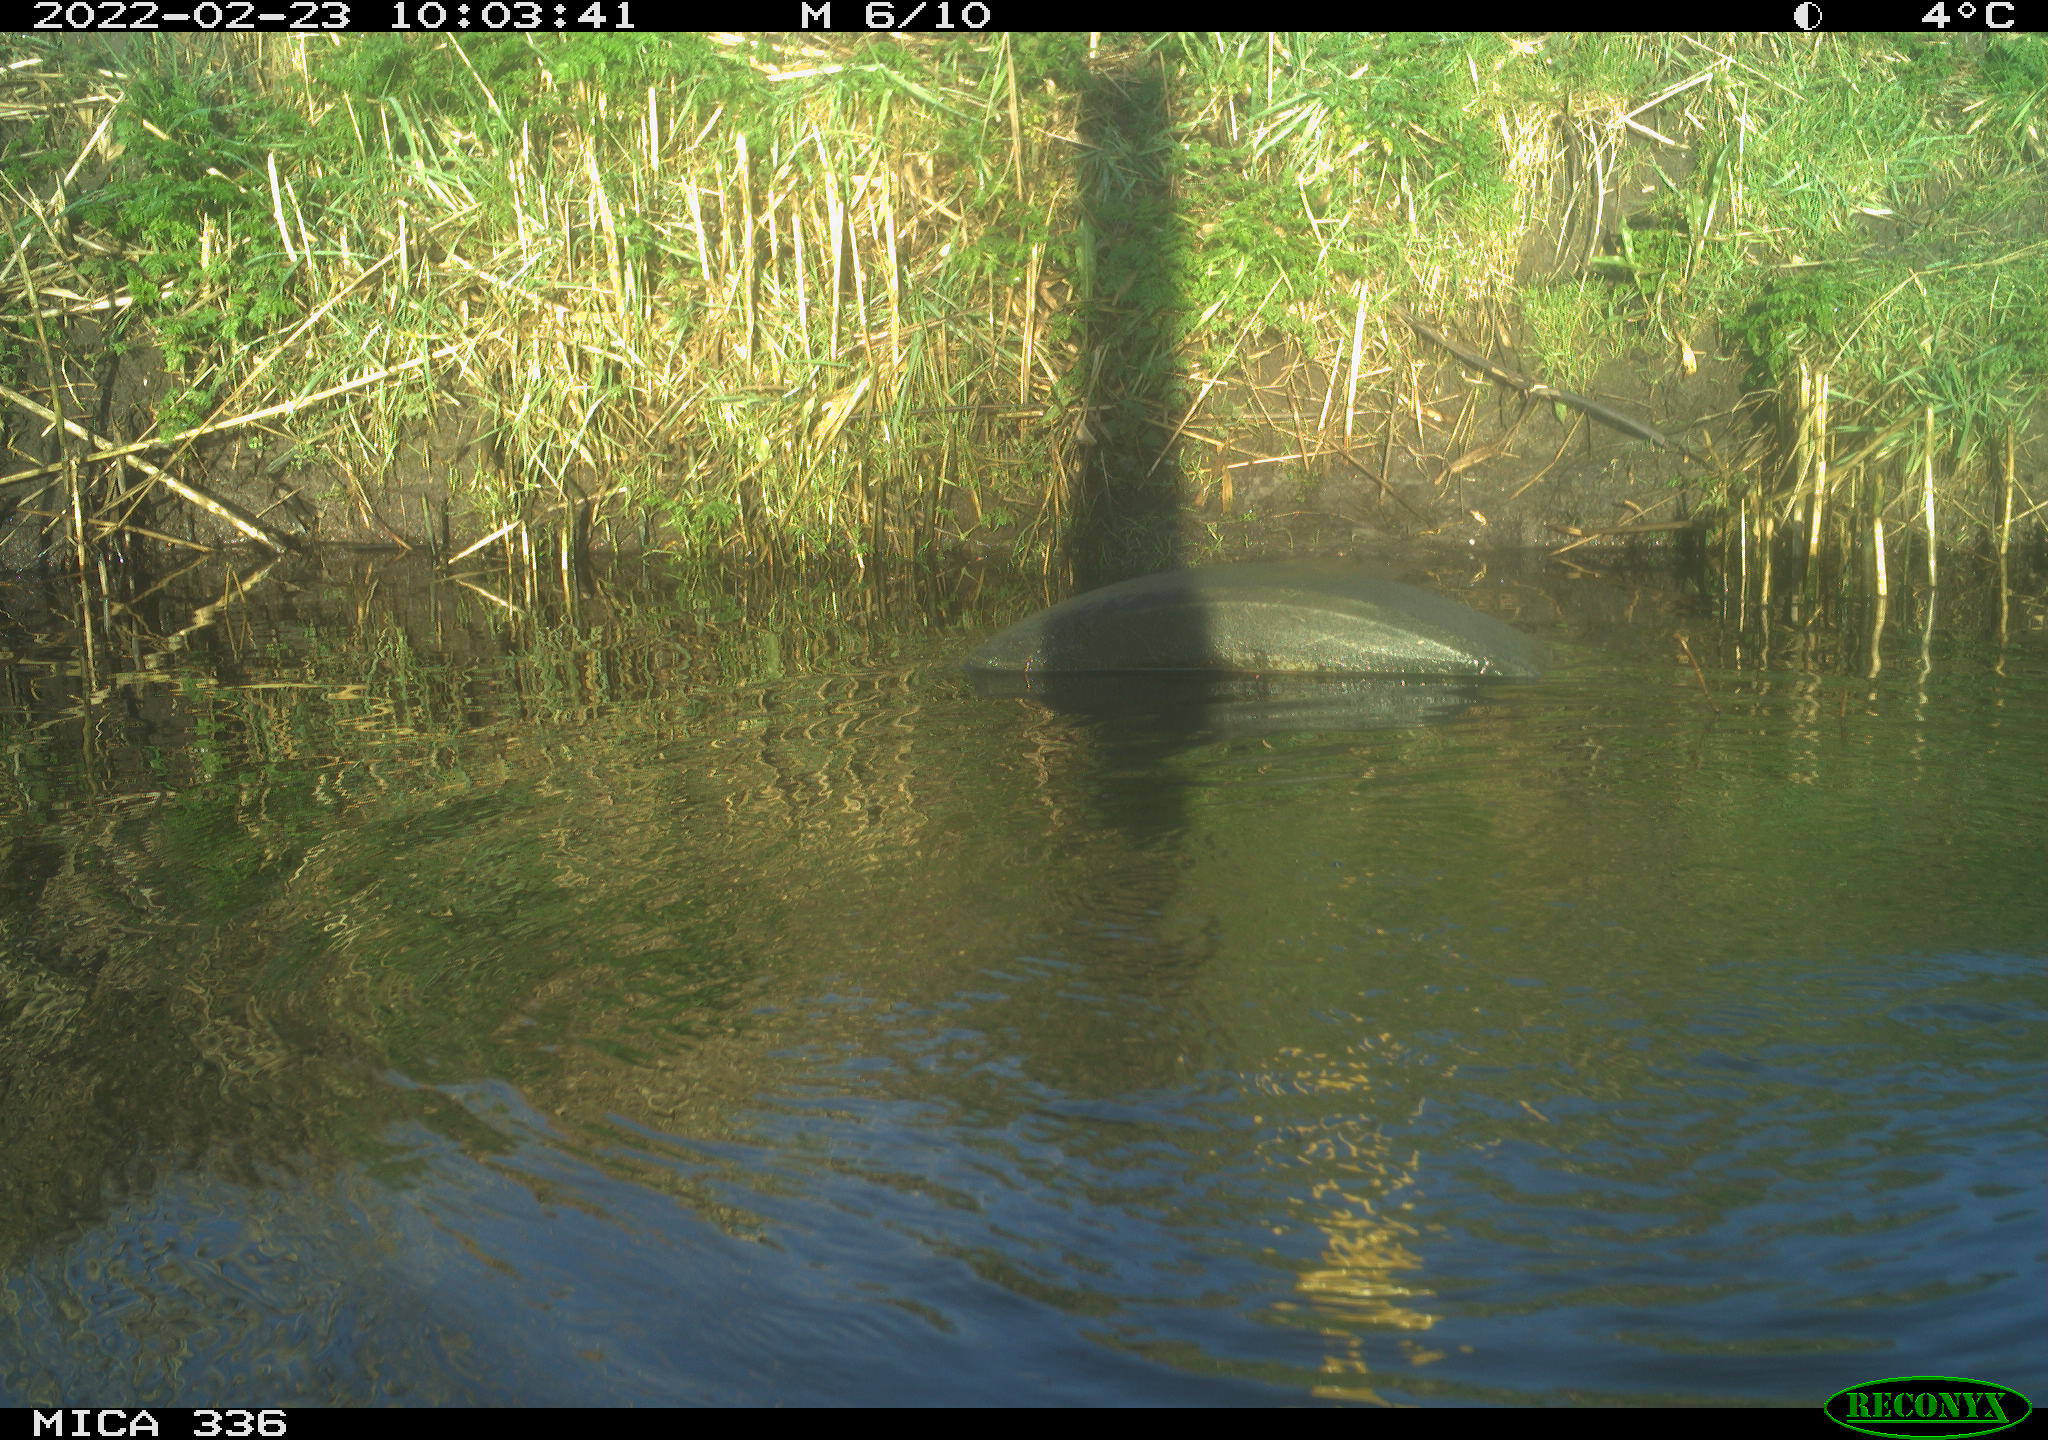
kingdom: Animalia
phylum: Chordata
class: Aves
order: Suliformes
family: Phalacrocoracidae
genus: Phalacrocorax
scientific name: Phalacrocorax carbo
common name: Great cormorant
